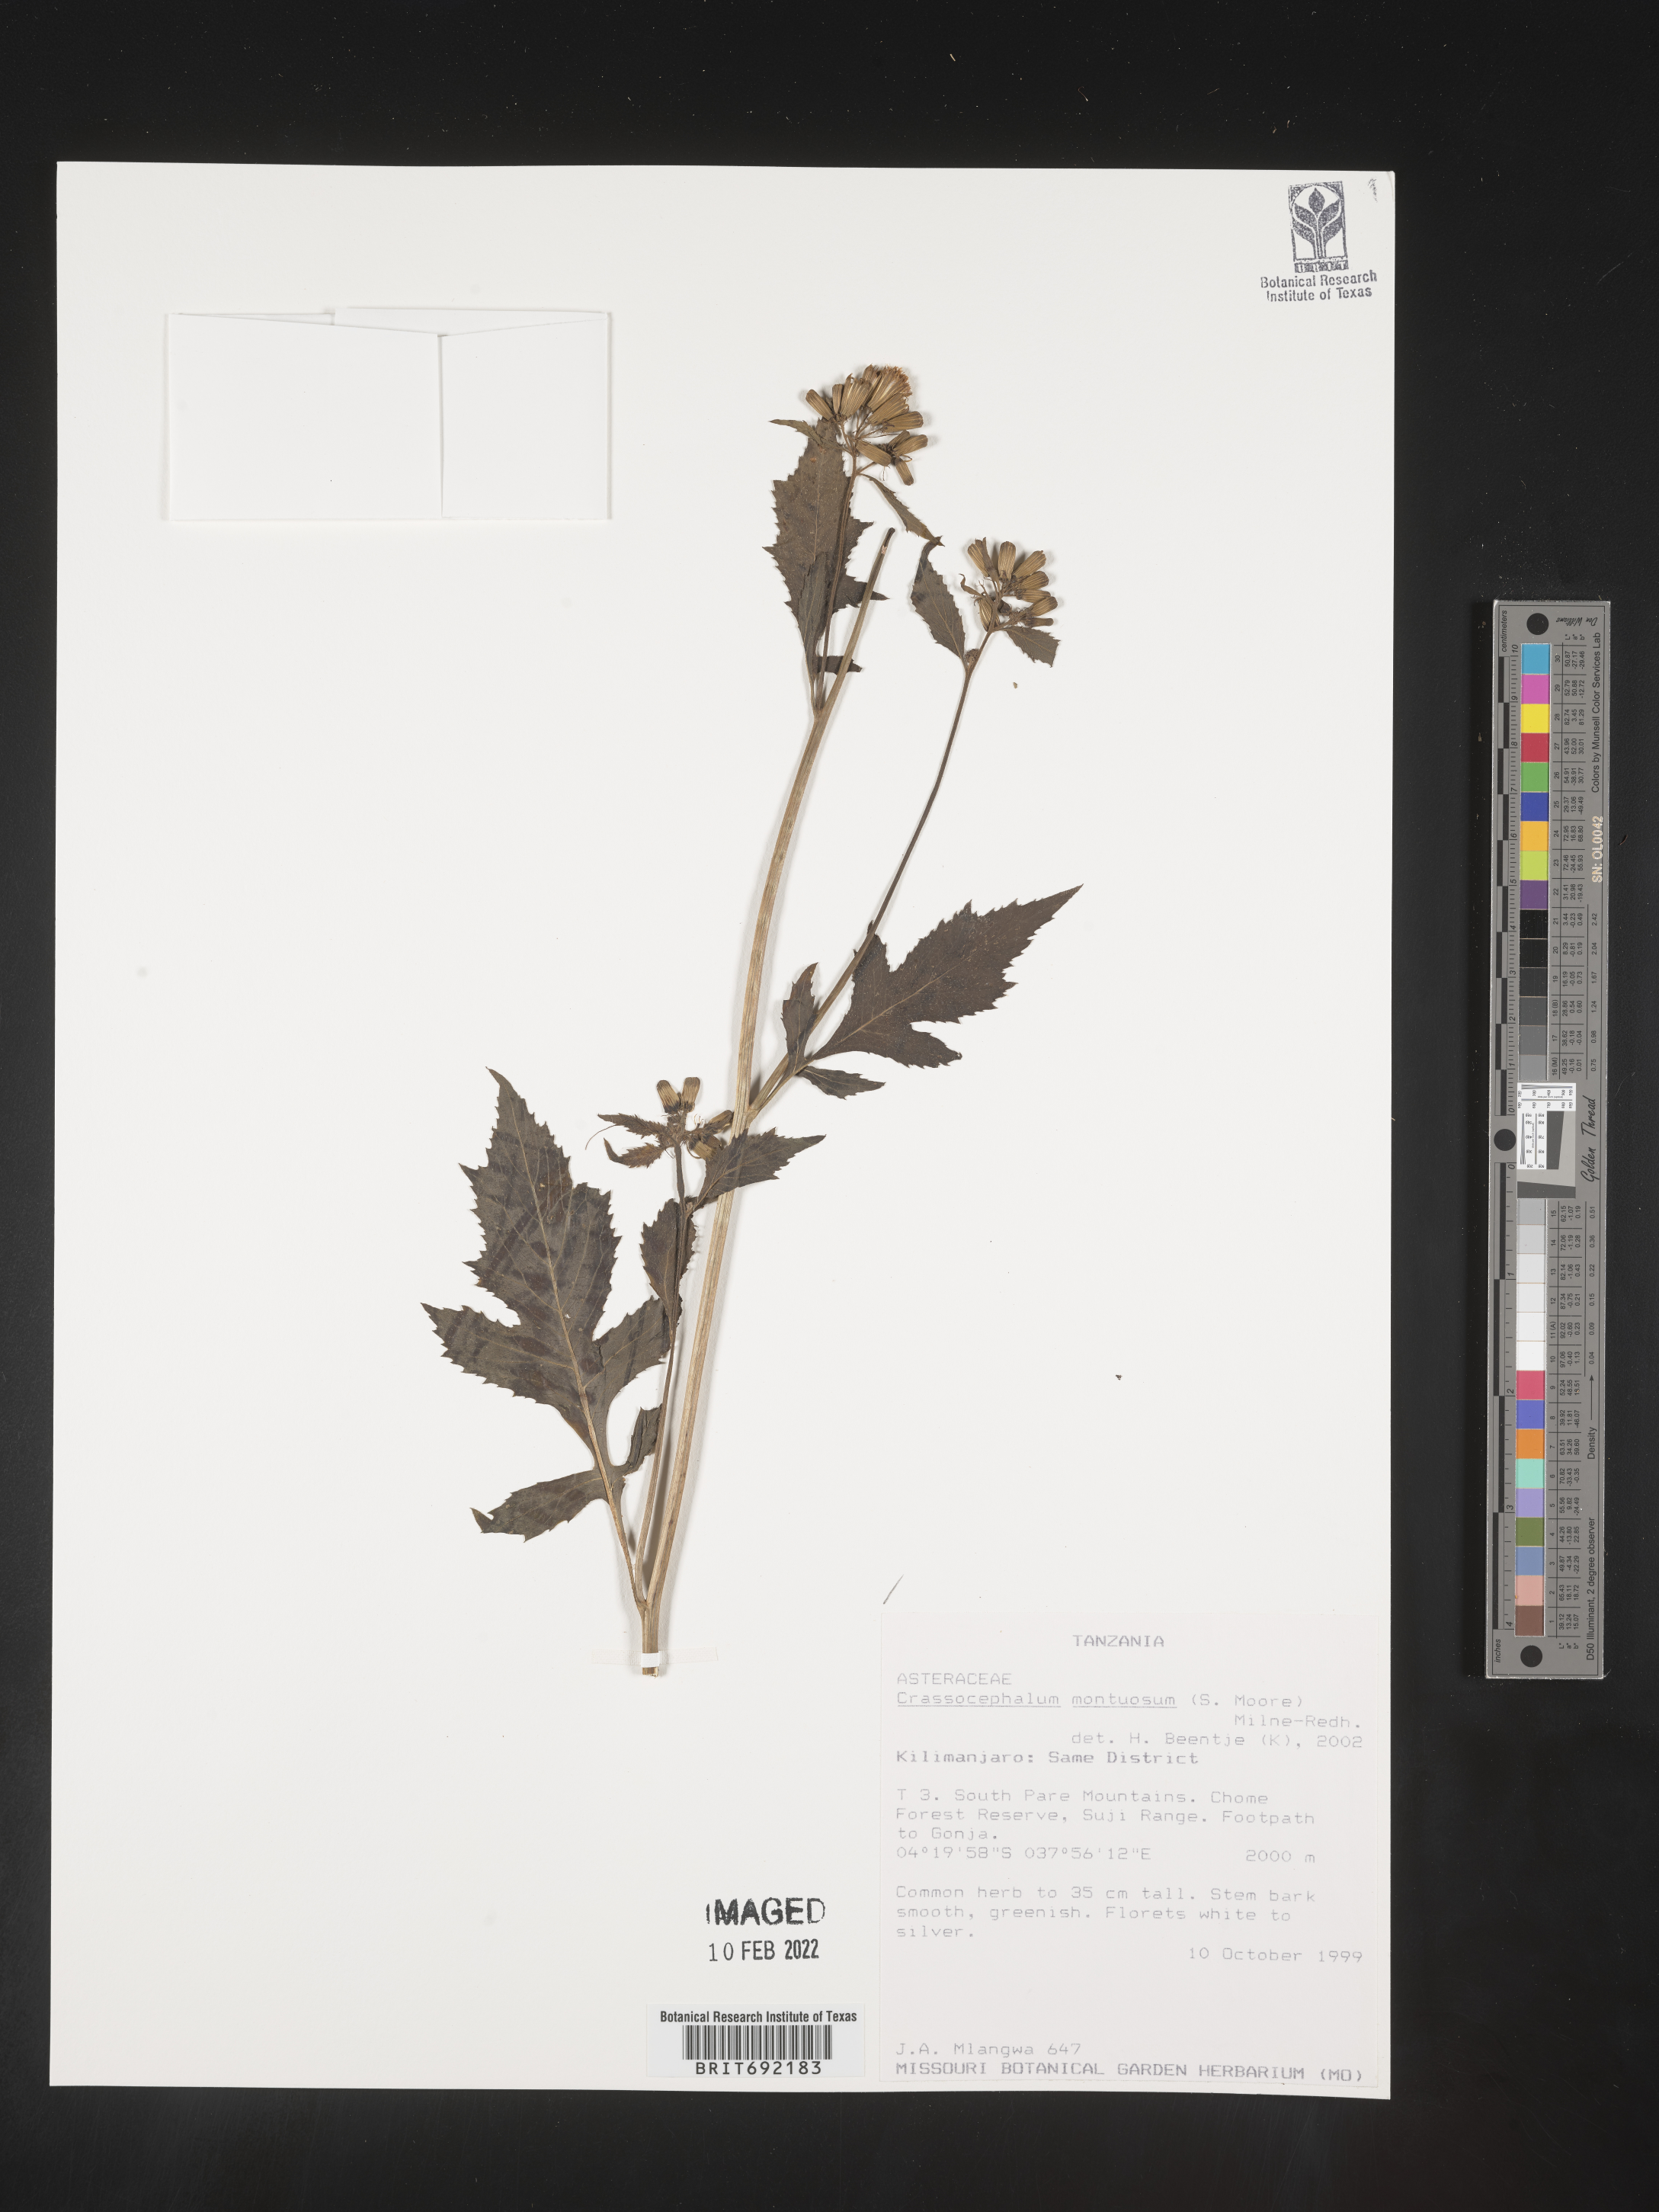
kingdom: Plantae
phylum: Tracheophyta
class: Magnoliopsida
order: Asterales
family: Asteraceae
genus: Crassocephalum
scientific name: Crassocephalum
